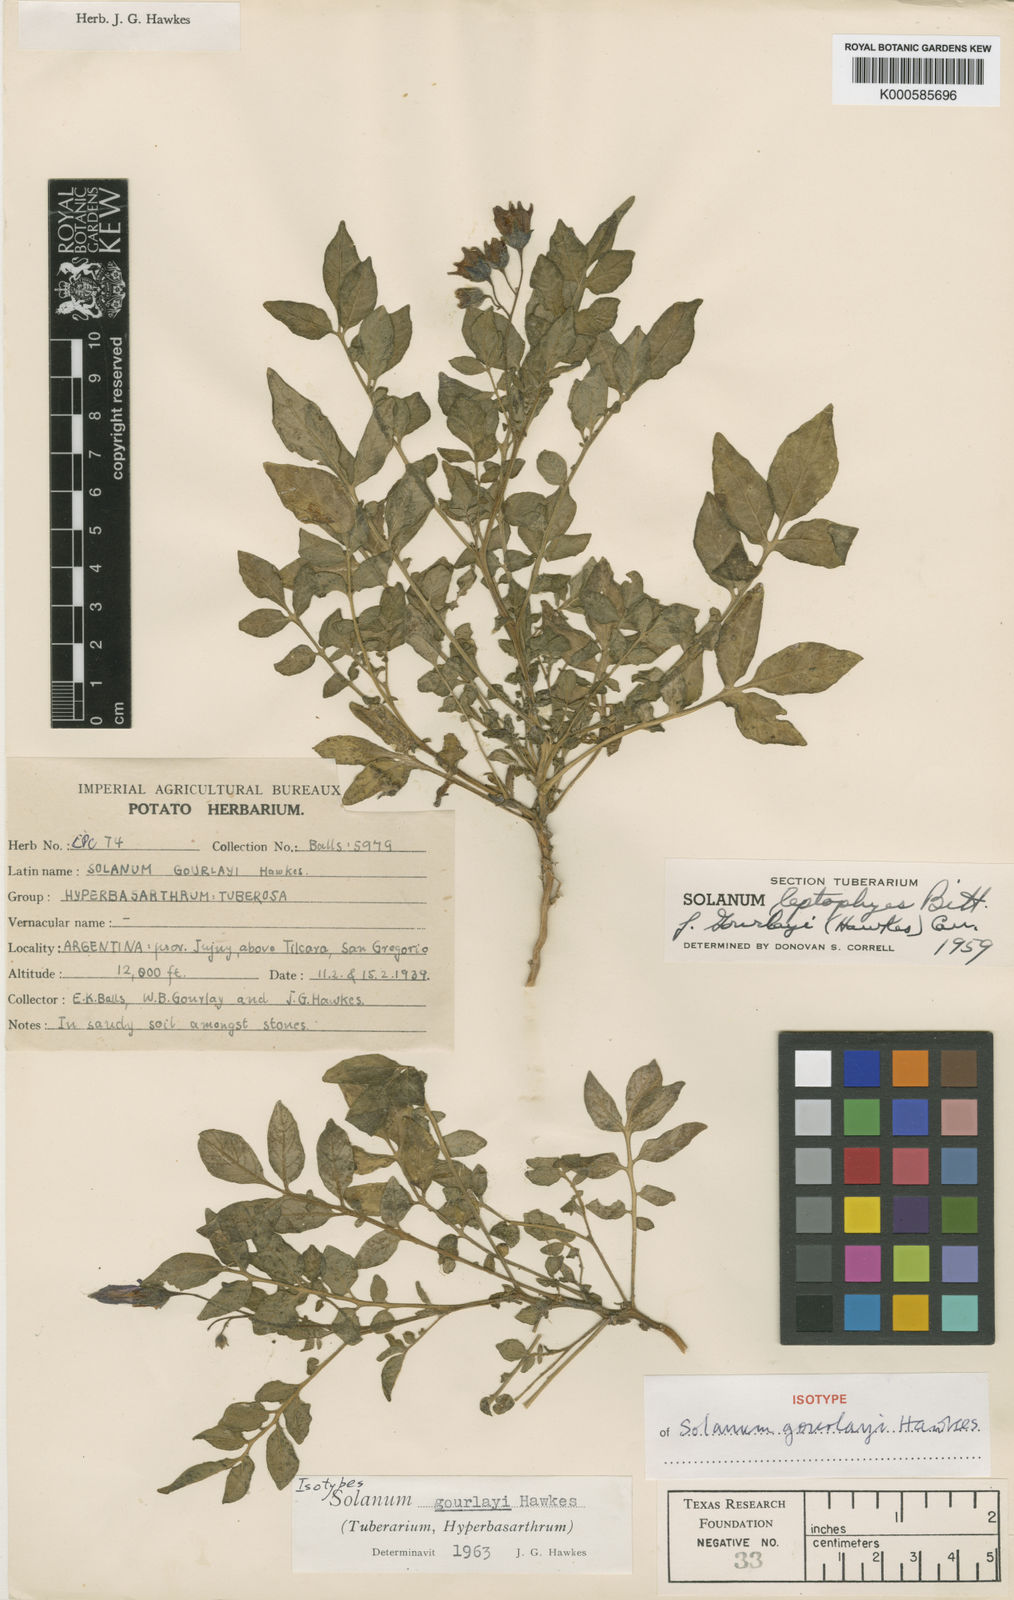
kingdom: Plantae
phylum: Tracheophyta
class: Magnoliopsida
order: Solanales
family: Solanaceae
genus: Solanum
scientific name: Solanum brevicaule
